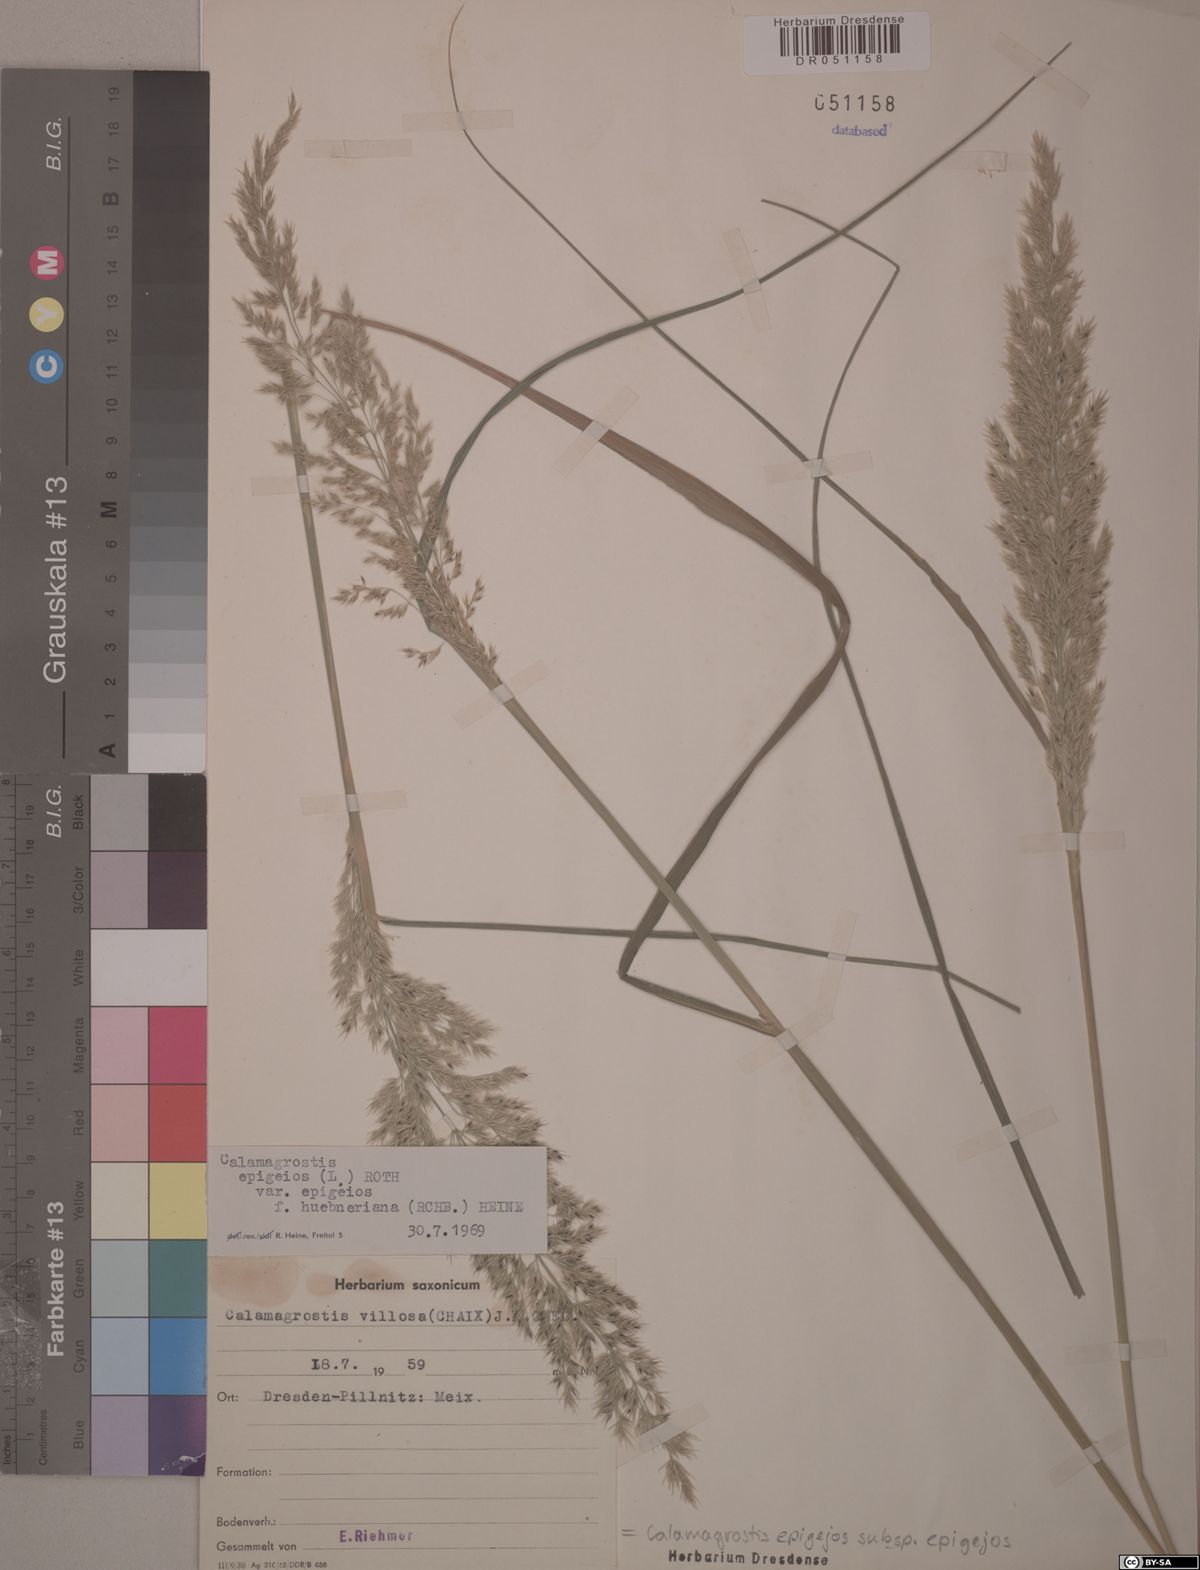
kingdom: Plantae
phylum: Tracheophyta
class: Liliopsida
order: Poales
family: Poaceae
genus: Calamagrostis
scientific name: Calamagrostis epigejos
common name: Wood small-reed
